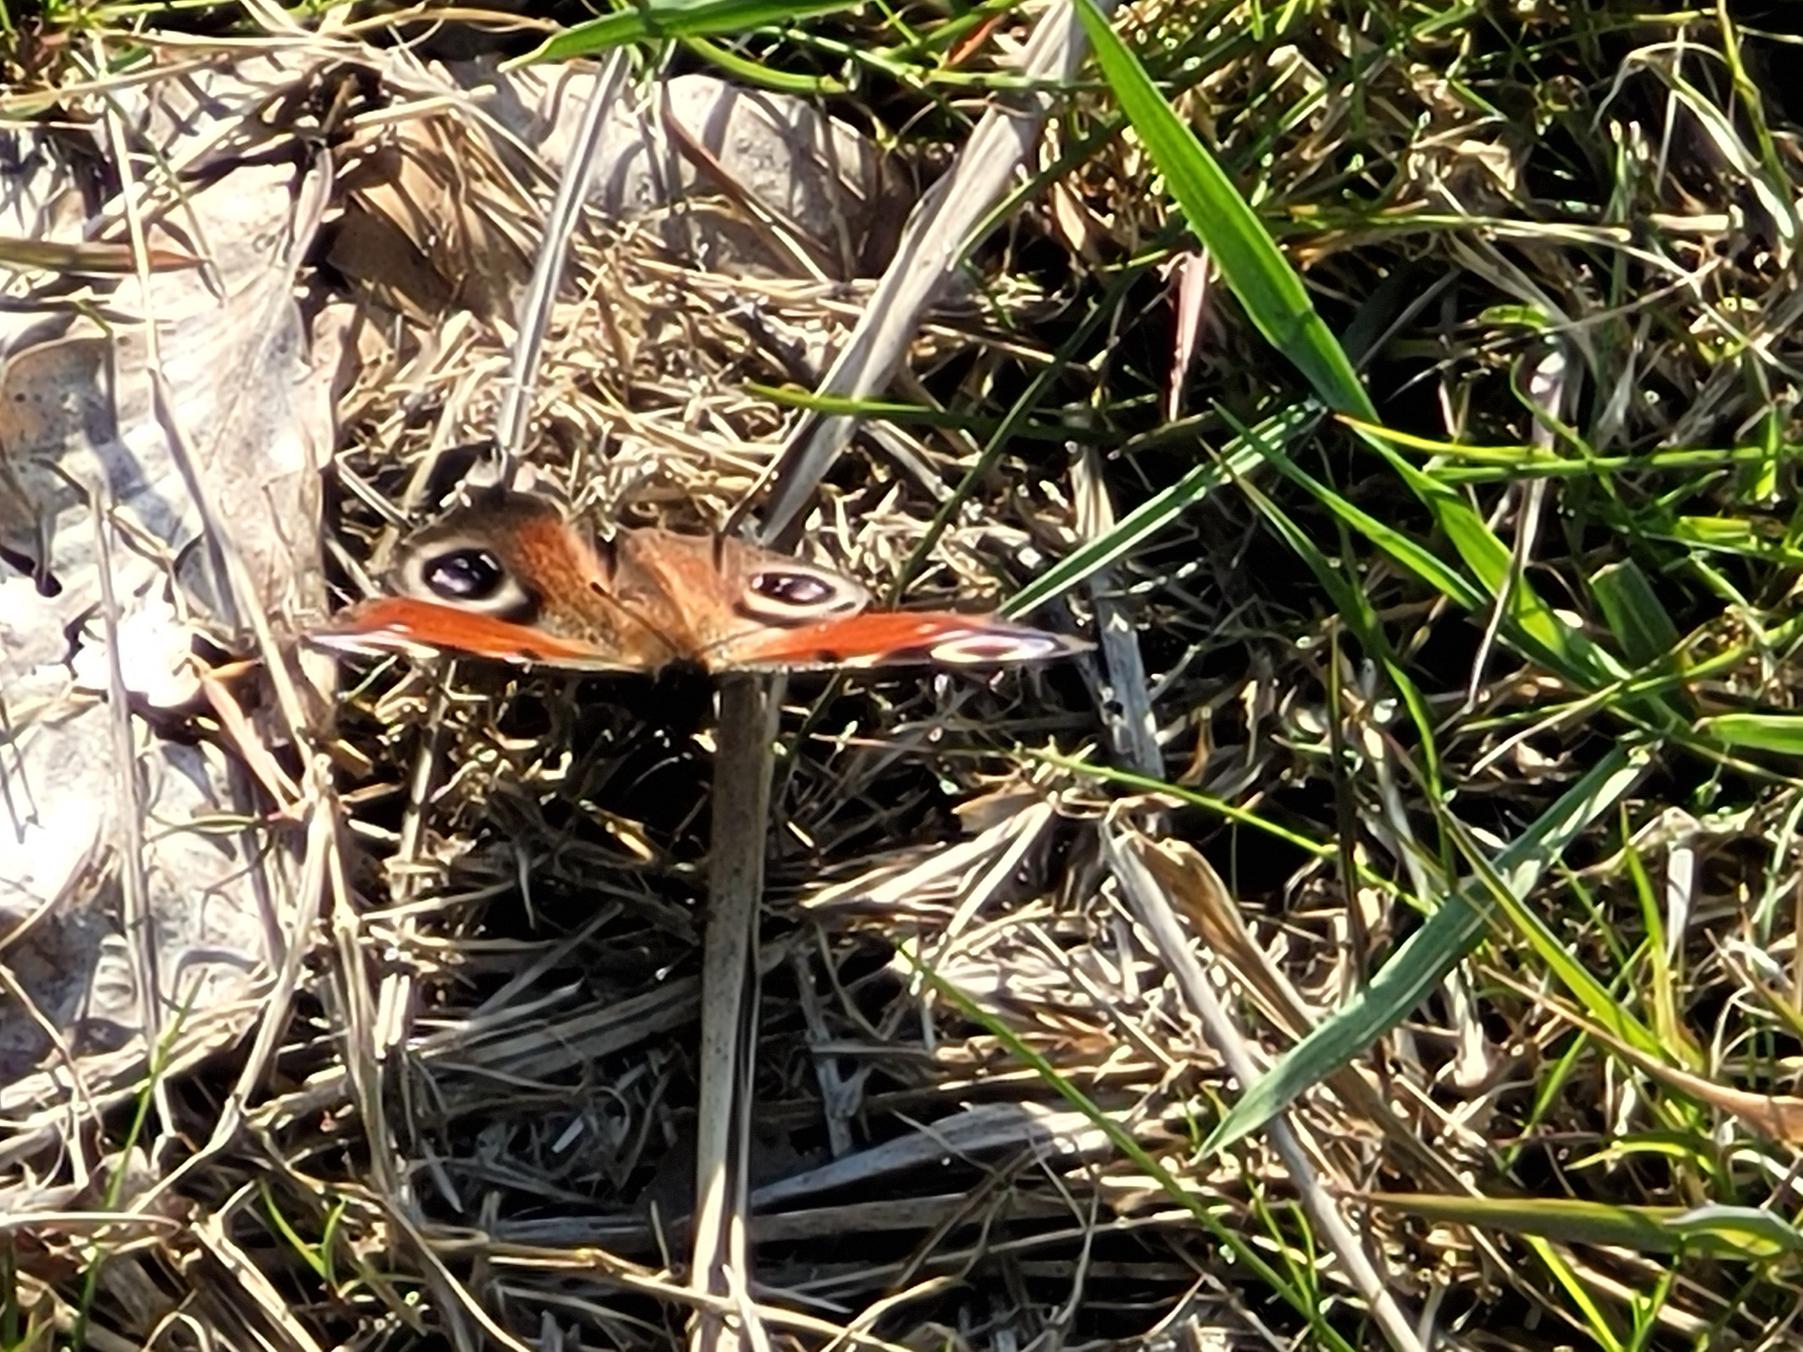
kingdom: Animalia
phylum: Arthropoda
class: Insecta
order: Lepidoptera
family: Nymphalidae
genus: Aglais
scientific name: Aglais io
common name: Dagpåfugleøje
